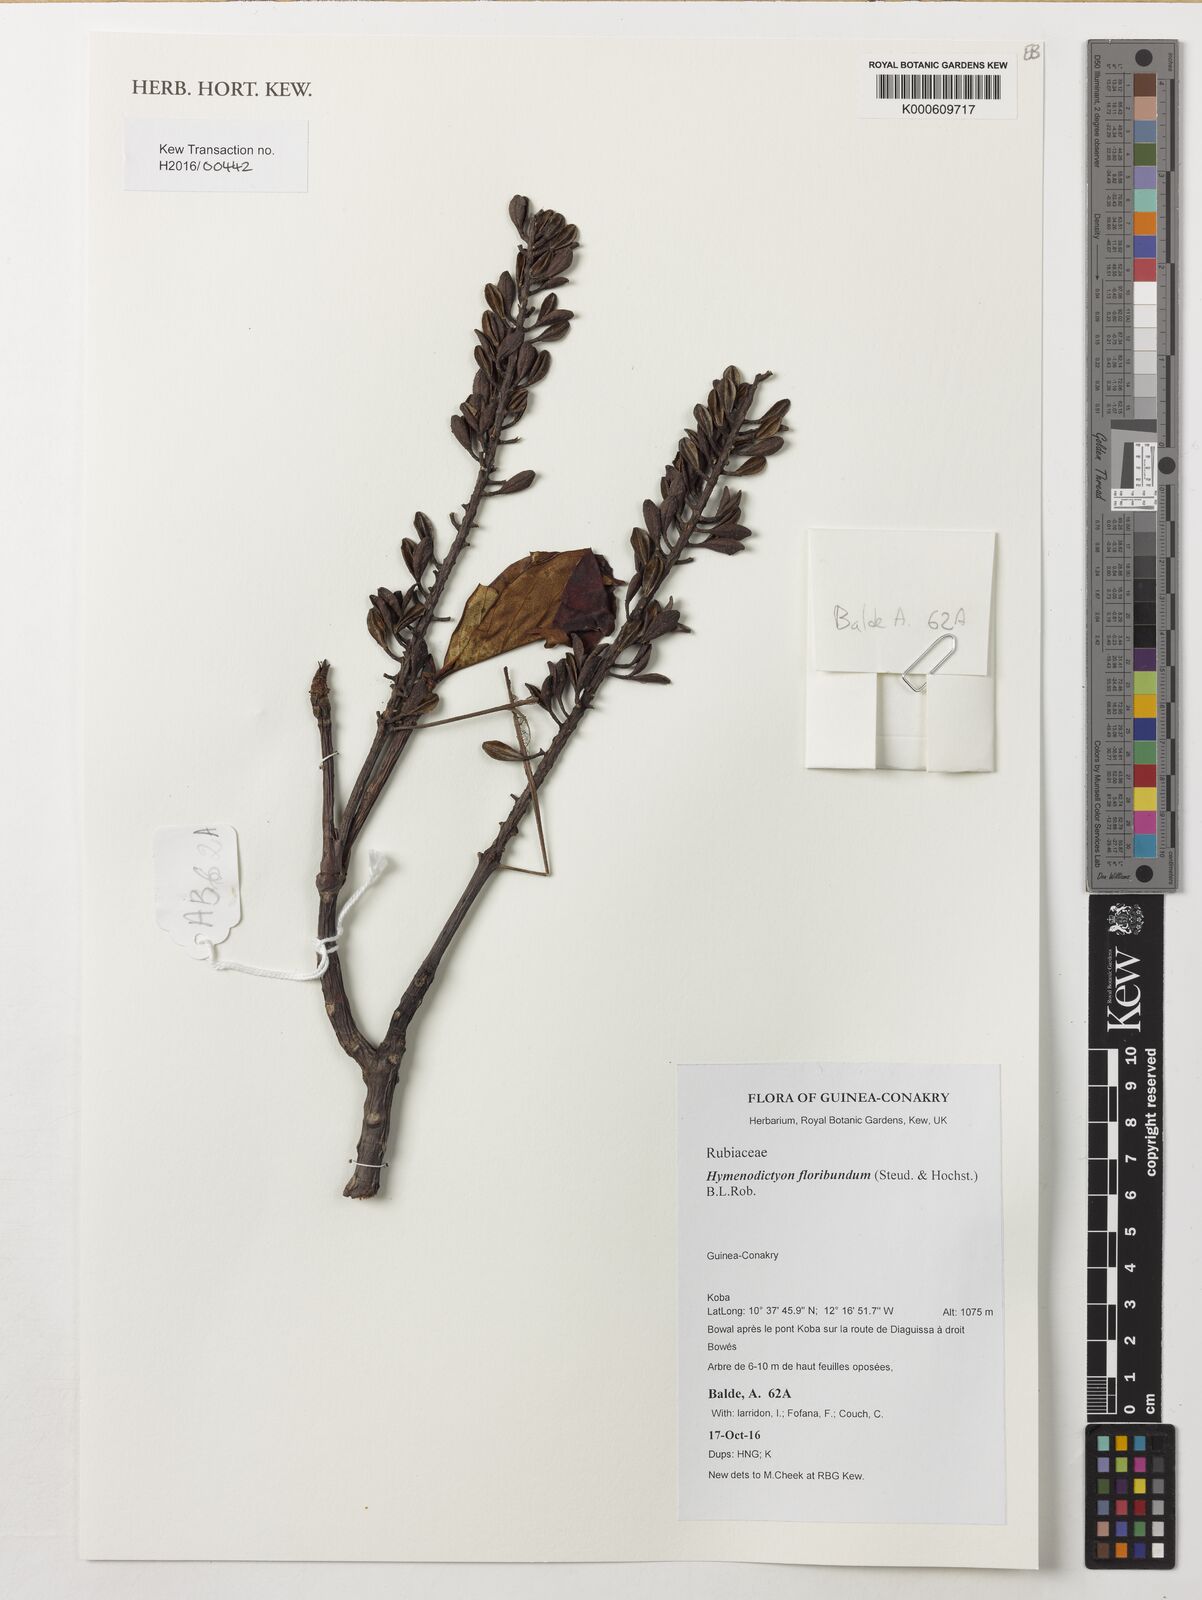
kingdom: Plantae
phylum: Tracheophyta
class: Magnoliopsida
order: Gentianales
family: Rubiaceae
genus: Hymenodictyon
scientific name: Hymenodictyon floribundum
